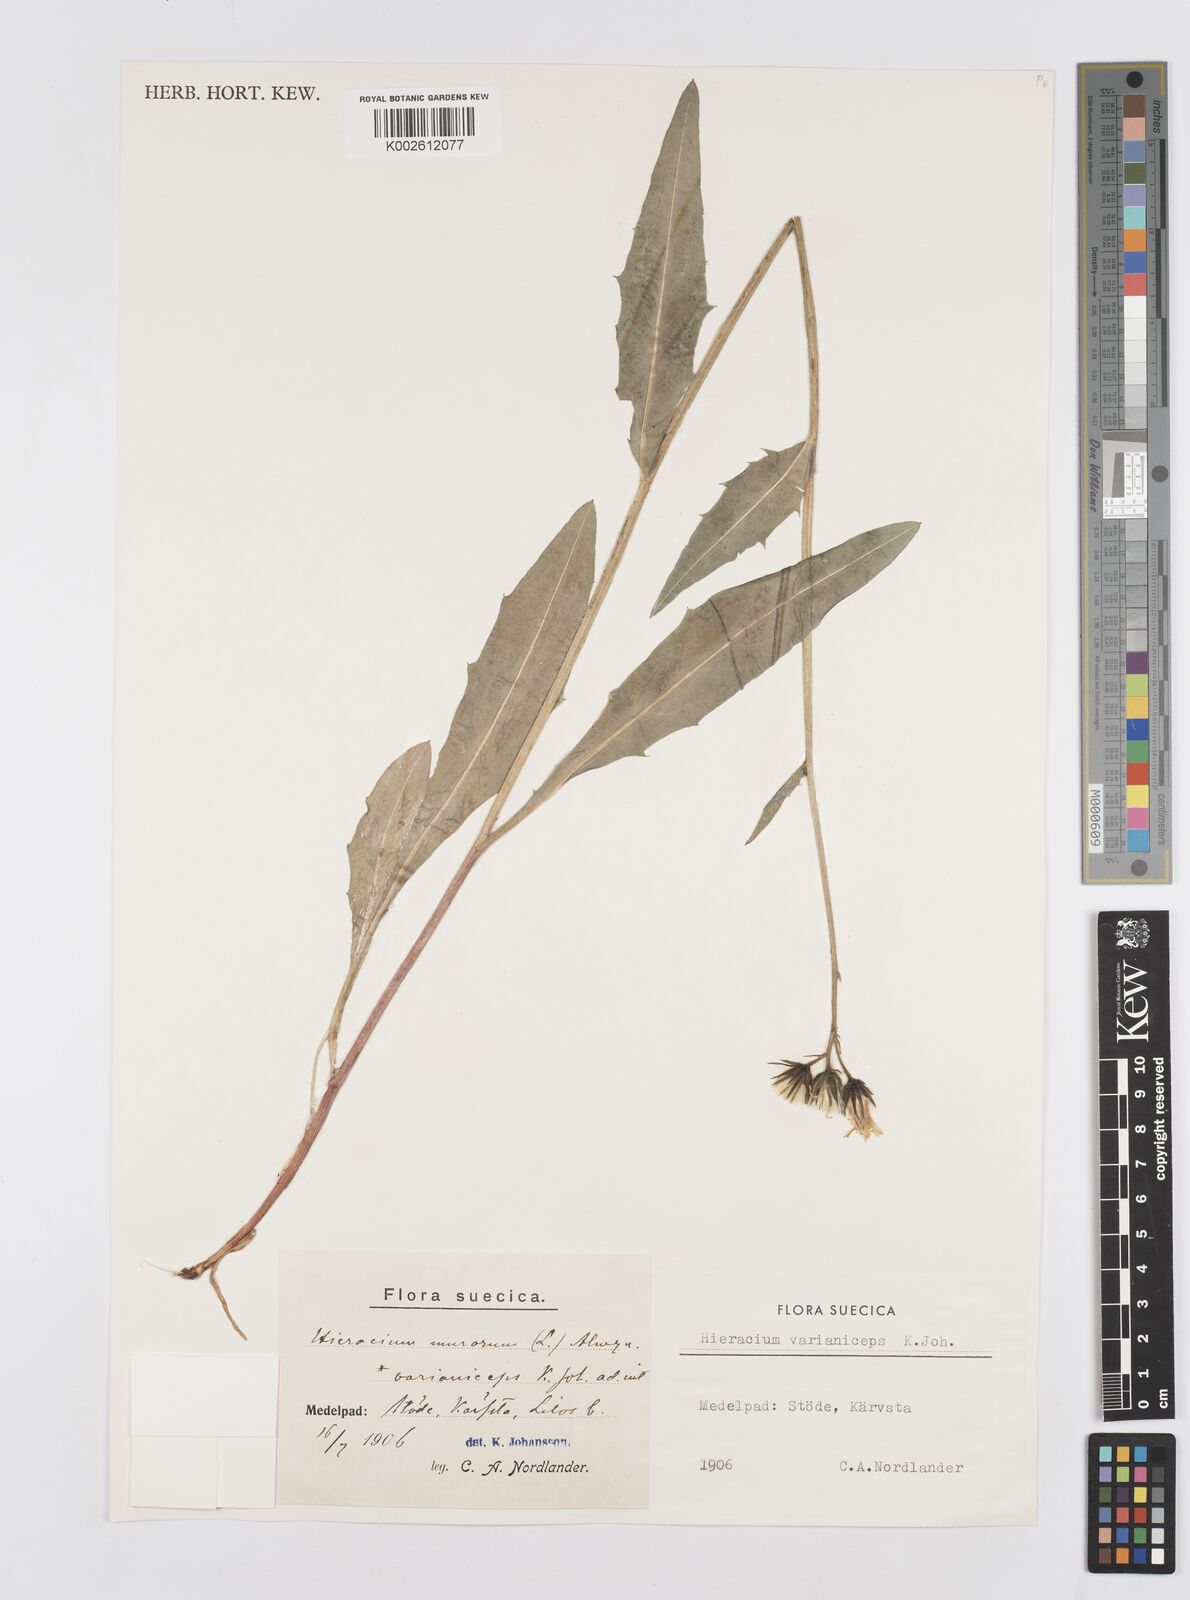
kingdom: Plantae
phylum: Tracheophyta
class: Magnoliopsida
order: Asterales
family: Asteraceae
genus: Hieracium
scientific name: Hieracium varianum
